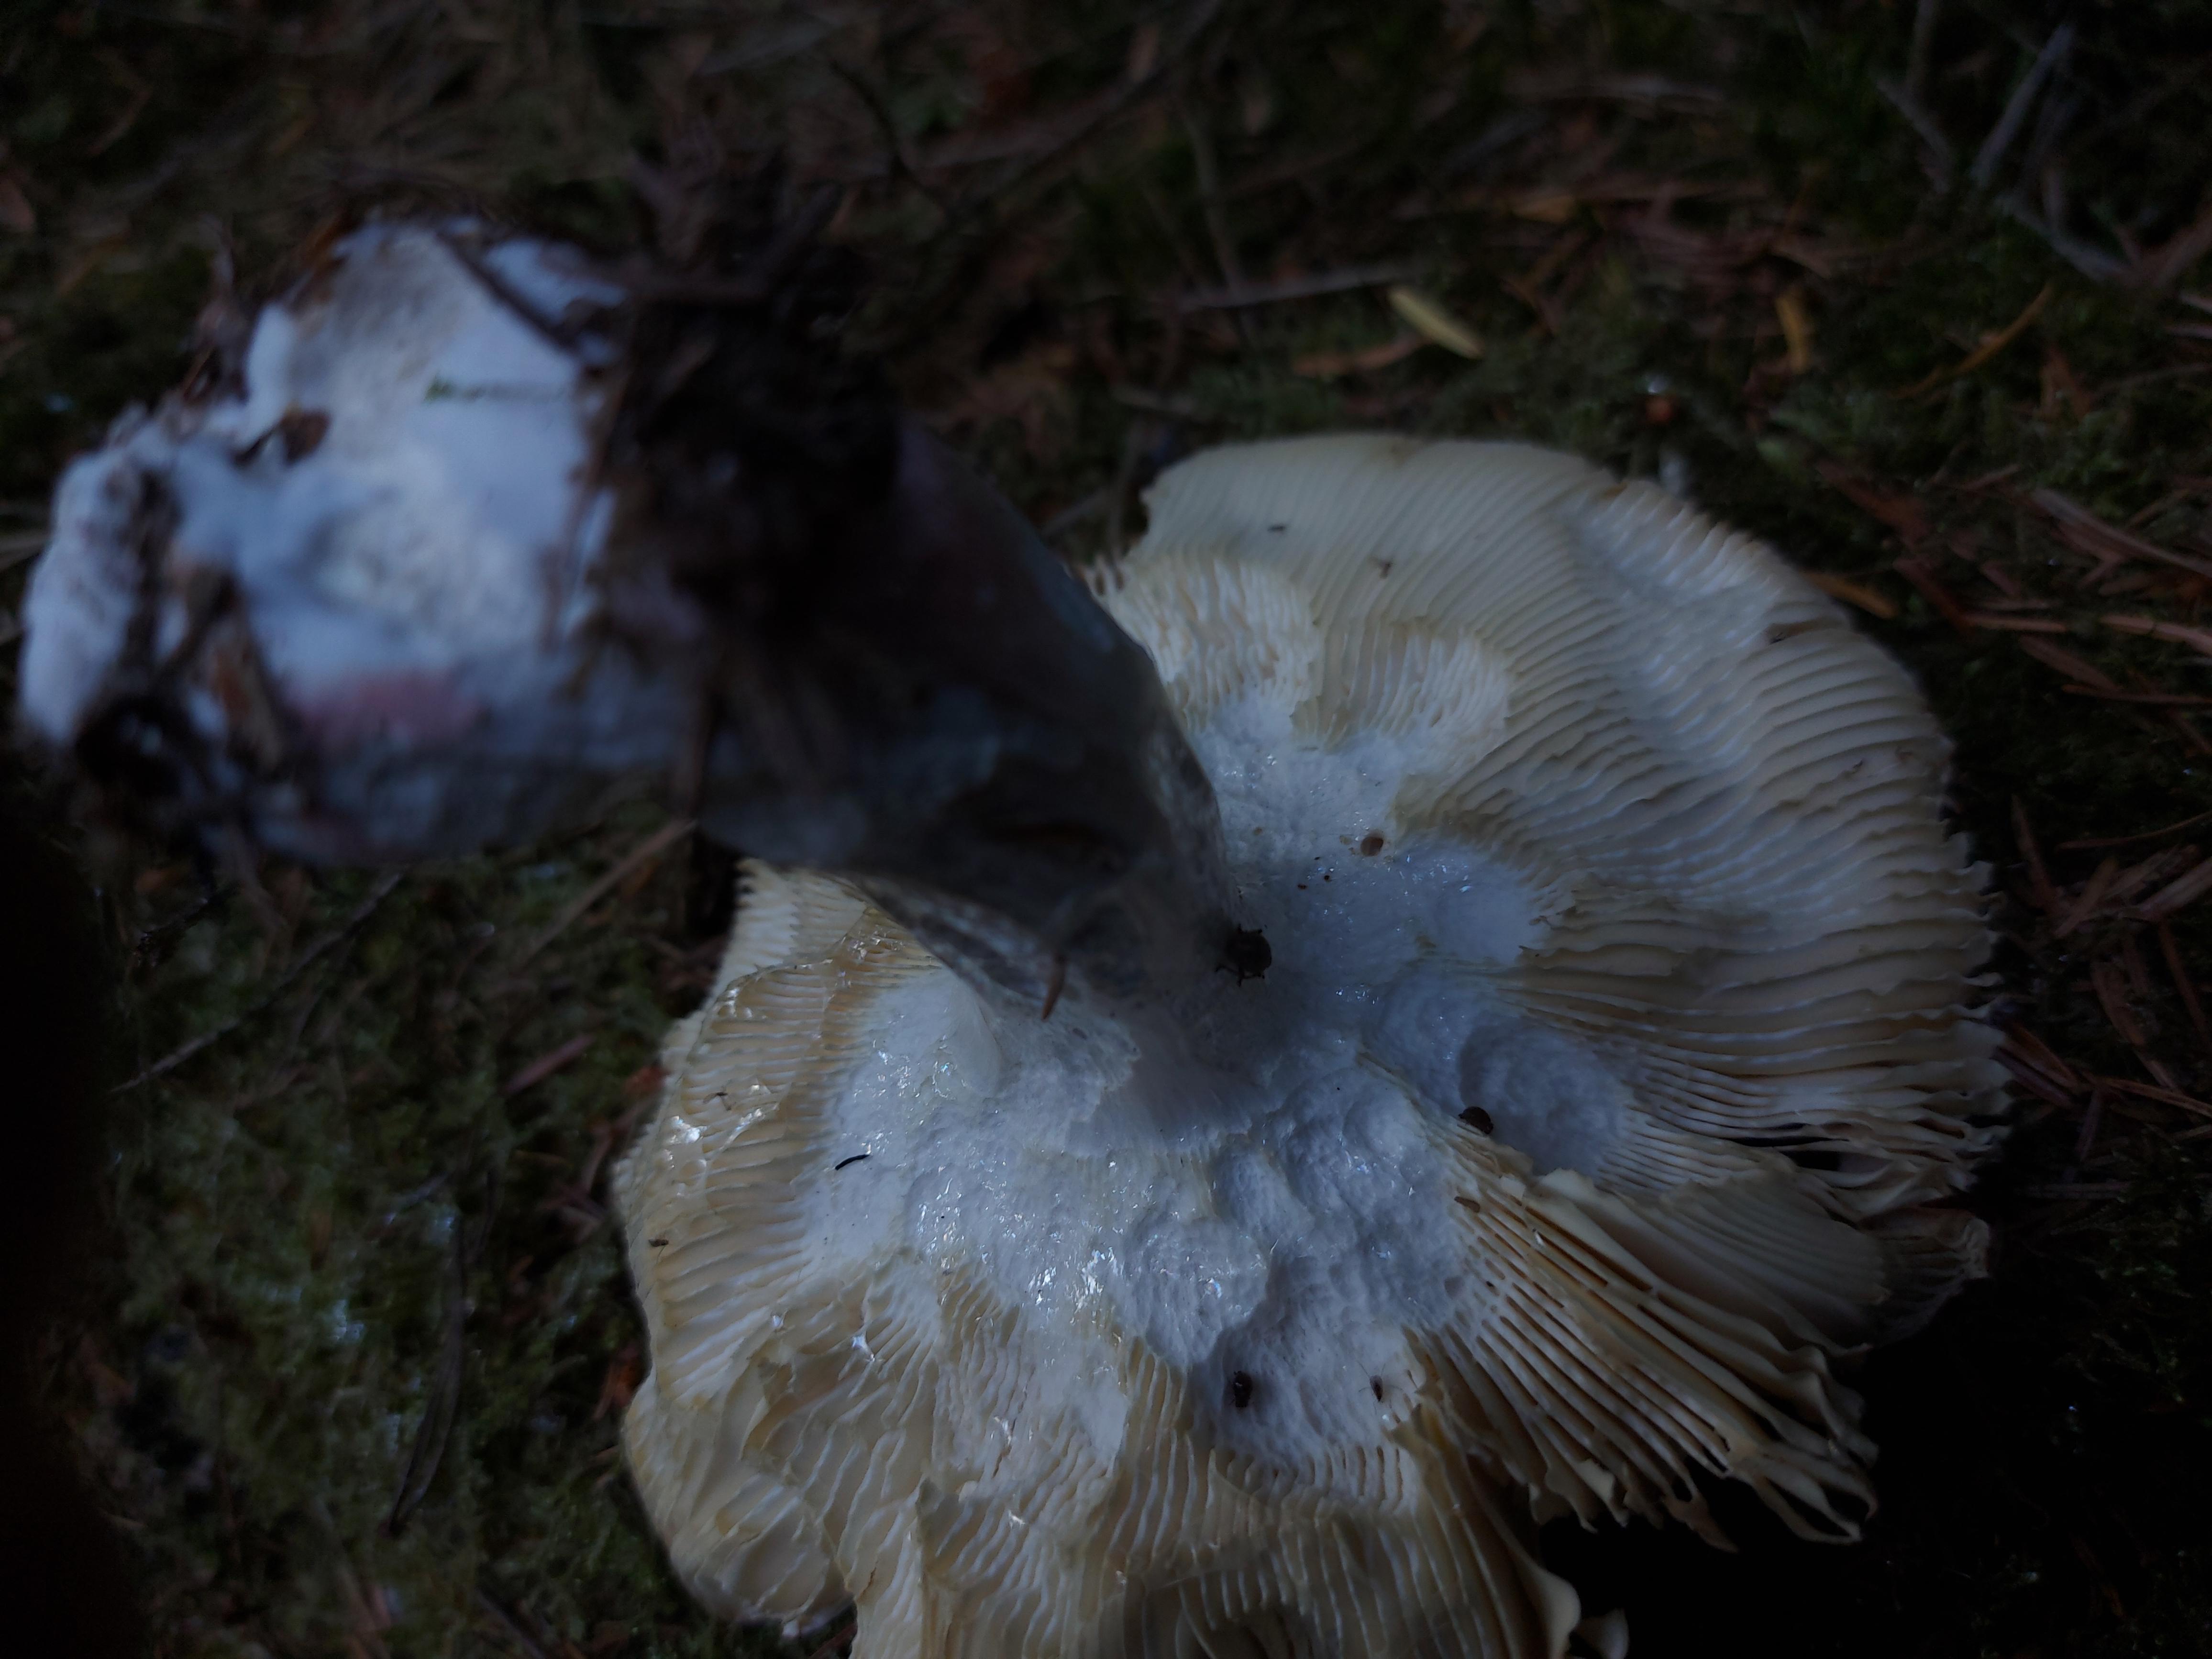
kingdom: Fungi
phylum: Basidiomycota
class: Agaricomycetes
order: Russulales
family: Russulaceae
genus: Russula
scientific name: Russula paludosa
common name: prægtig skørhat
